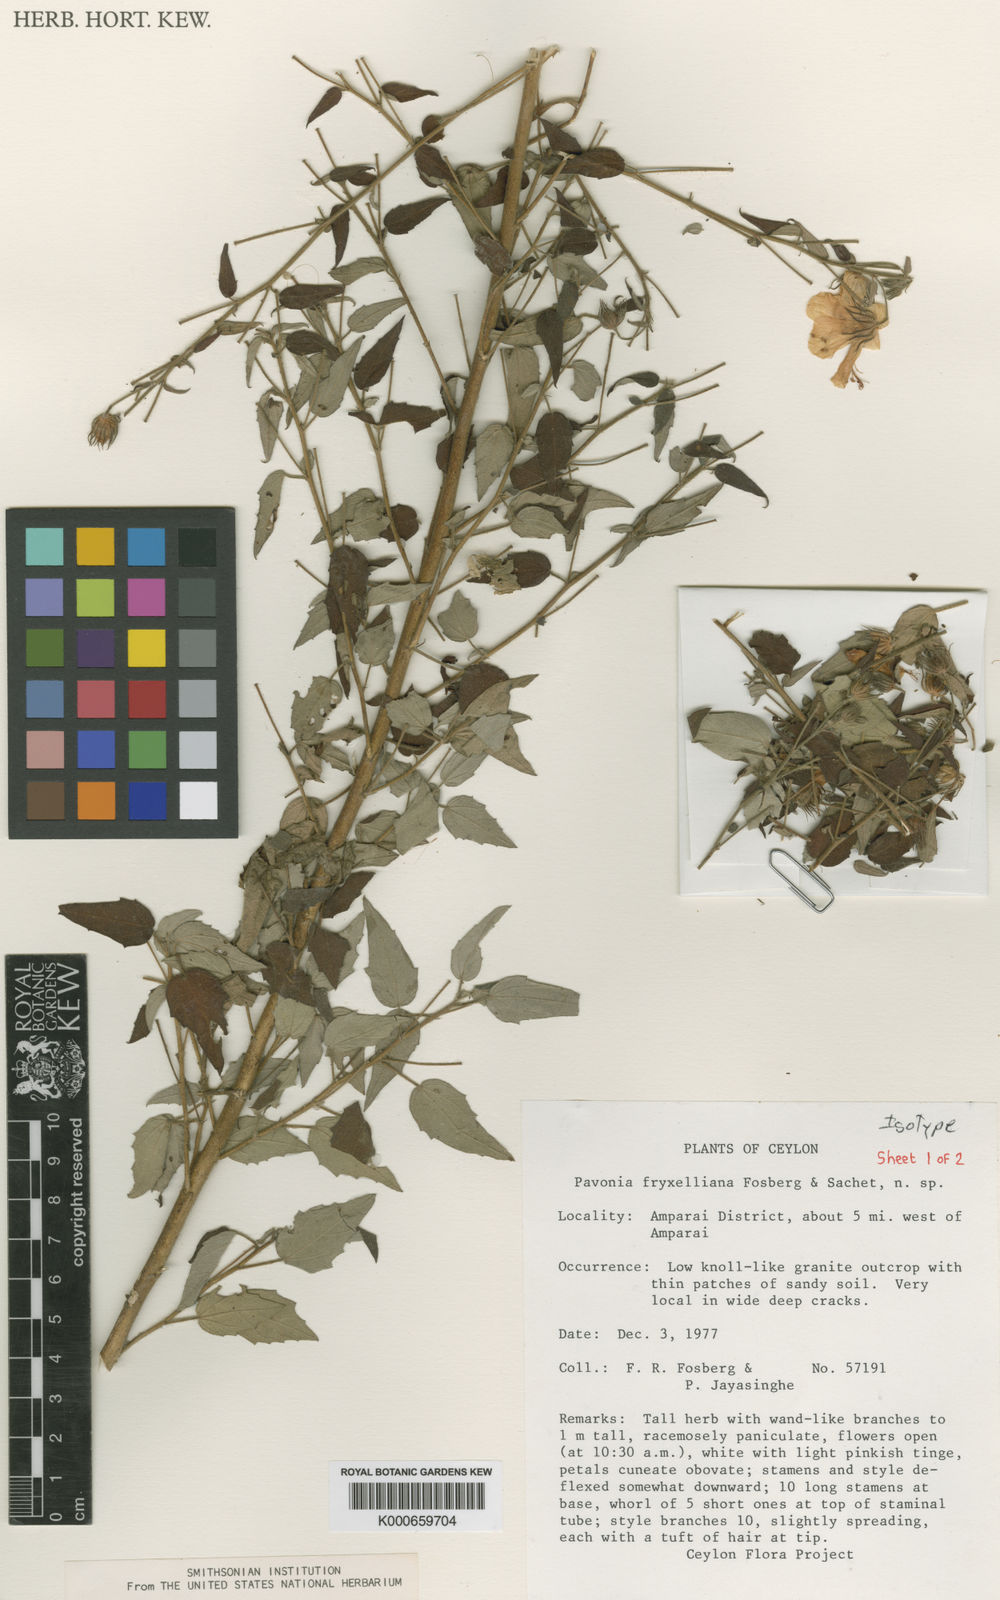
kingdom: Plantae
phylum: Tracheophyta
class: Magnoliopsida
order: Malvales
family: Malvaceae
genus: Pavonia
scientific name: Pavonia fryxelliana
